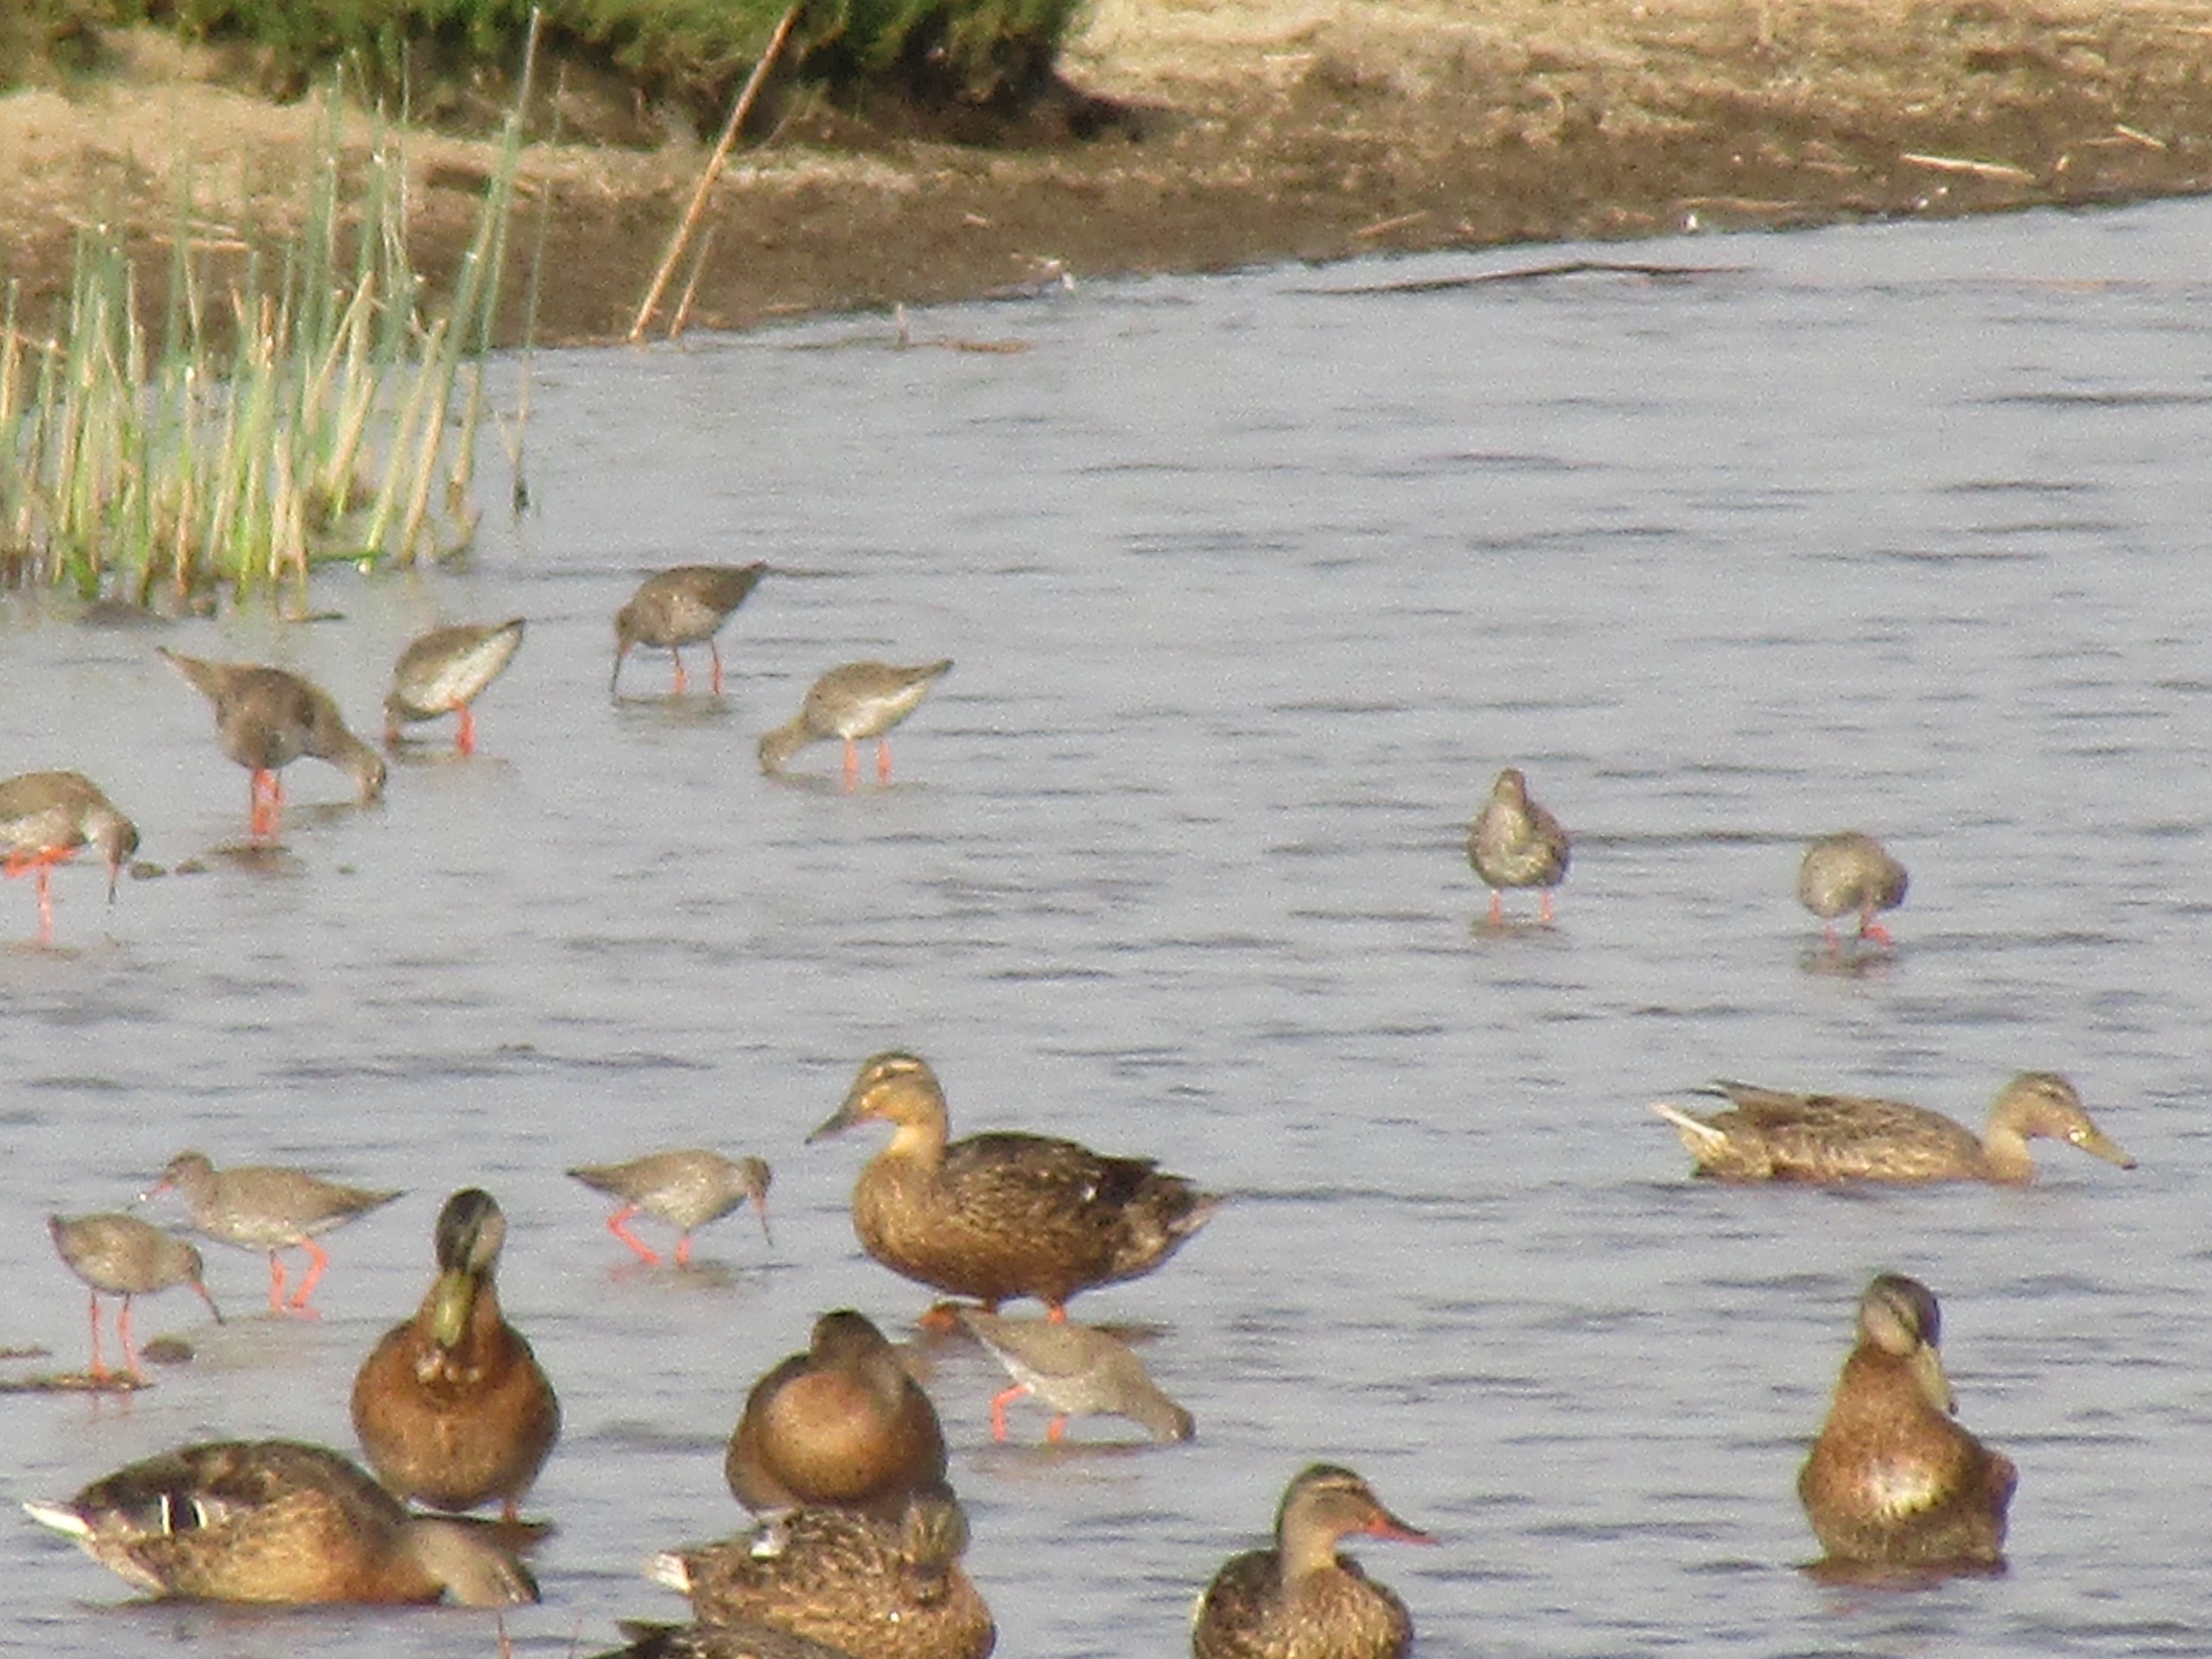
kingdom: Animalia
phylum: Chordata
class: Aves
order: Charadriiformes
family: Scolopacidae
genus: Tringa
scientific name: Tringa totanus
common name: Rødben
